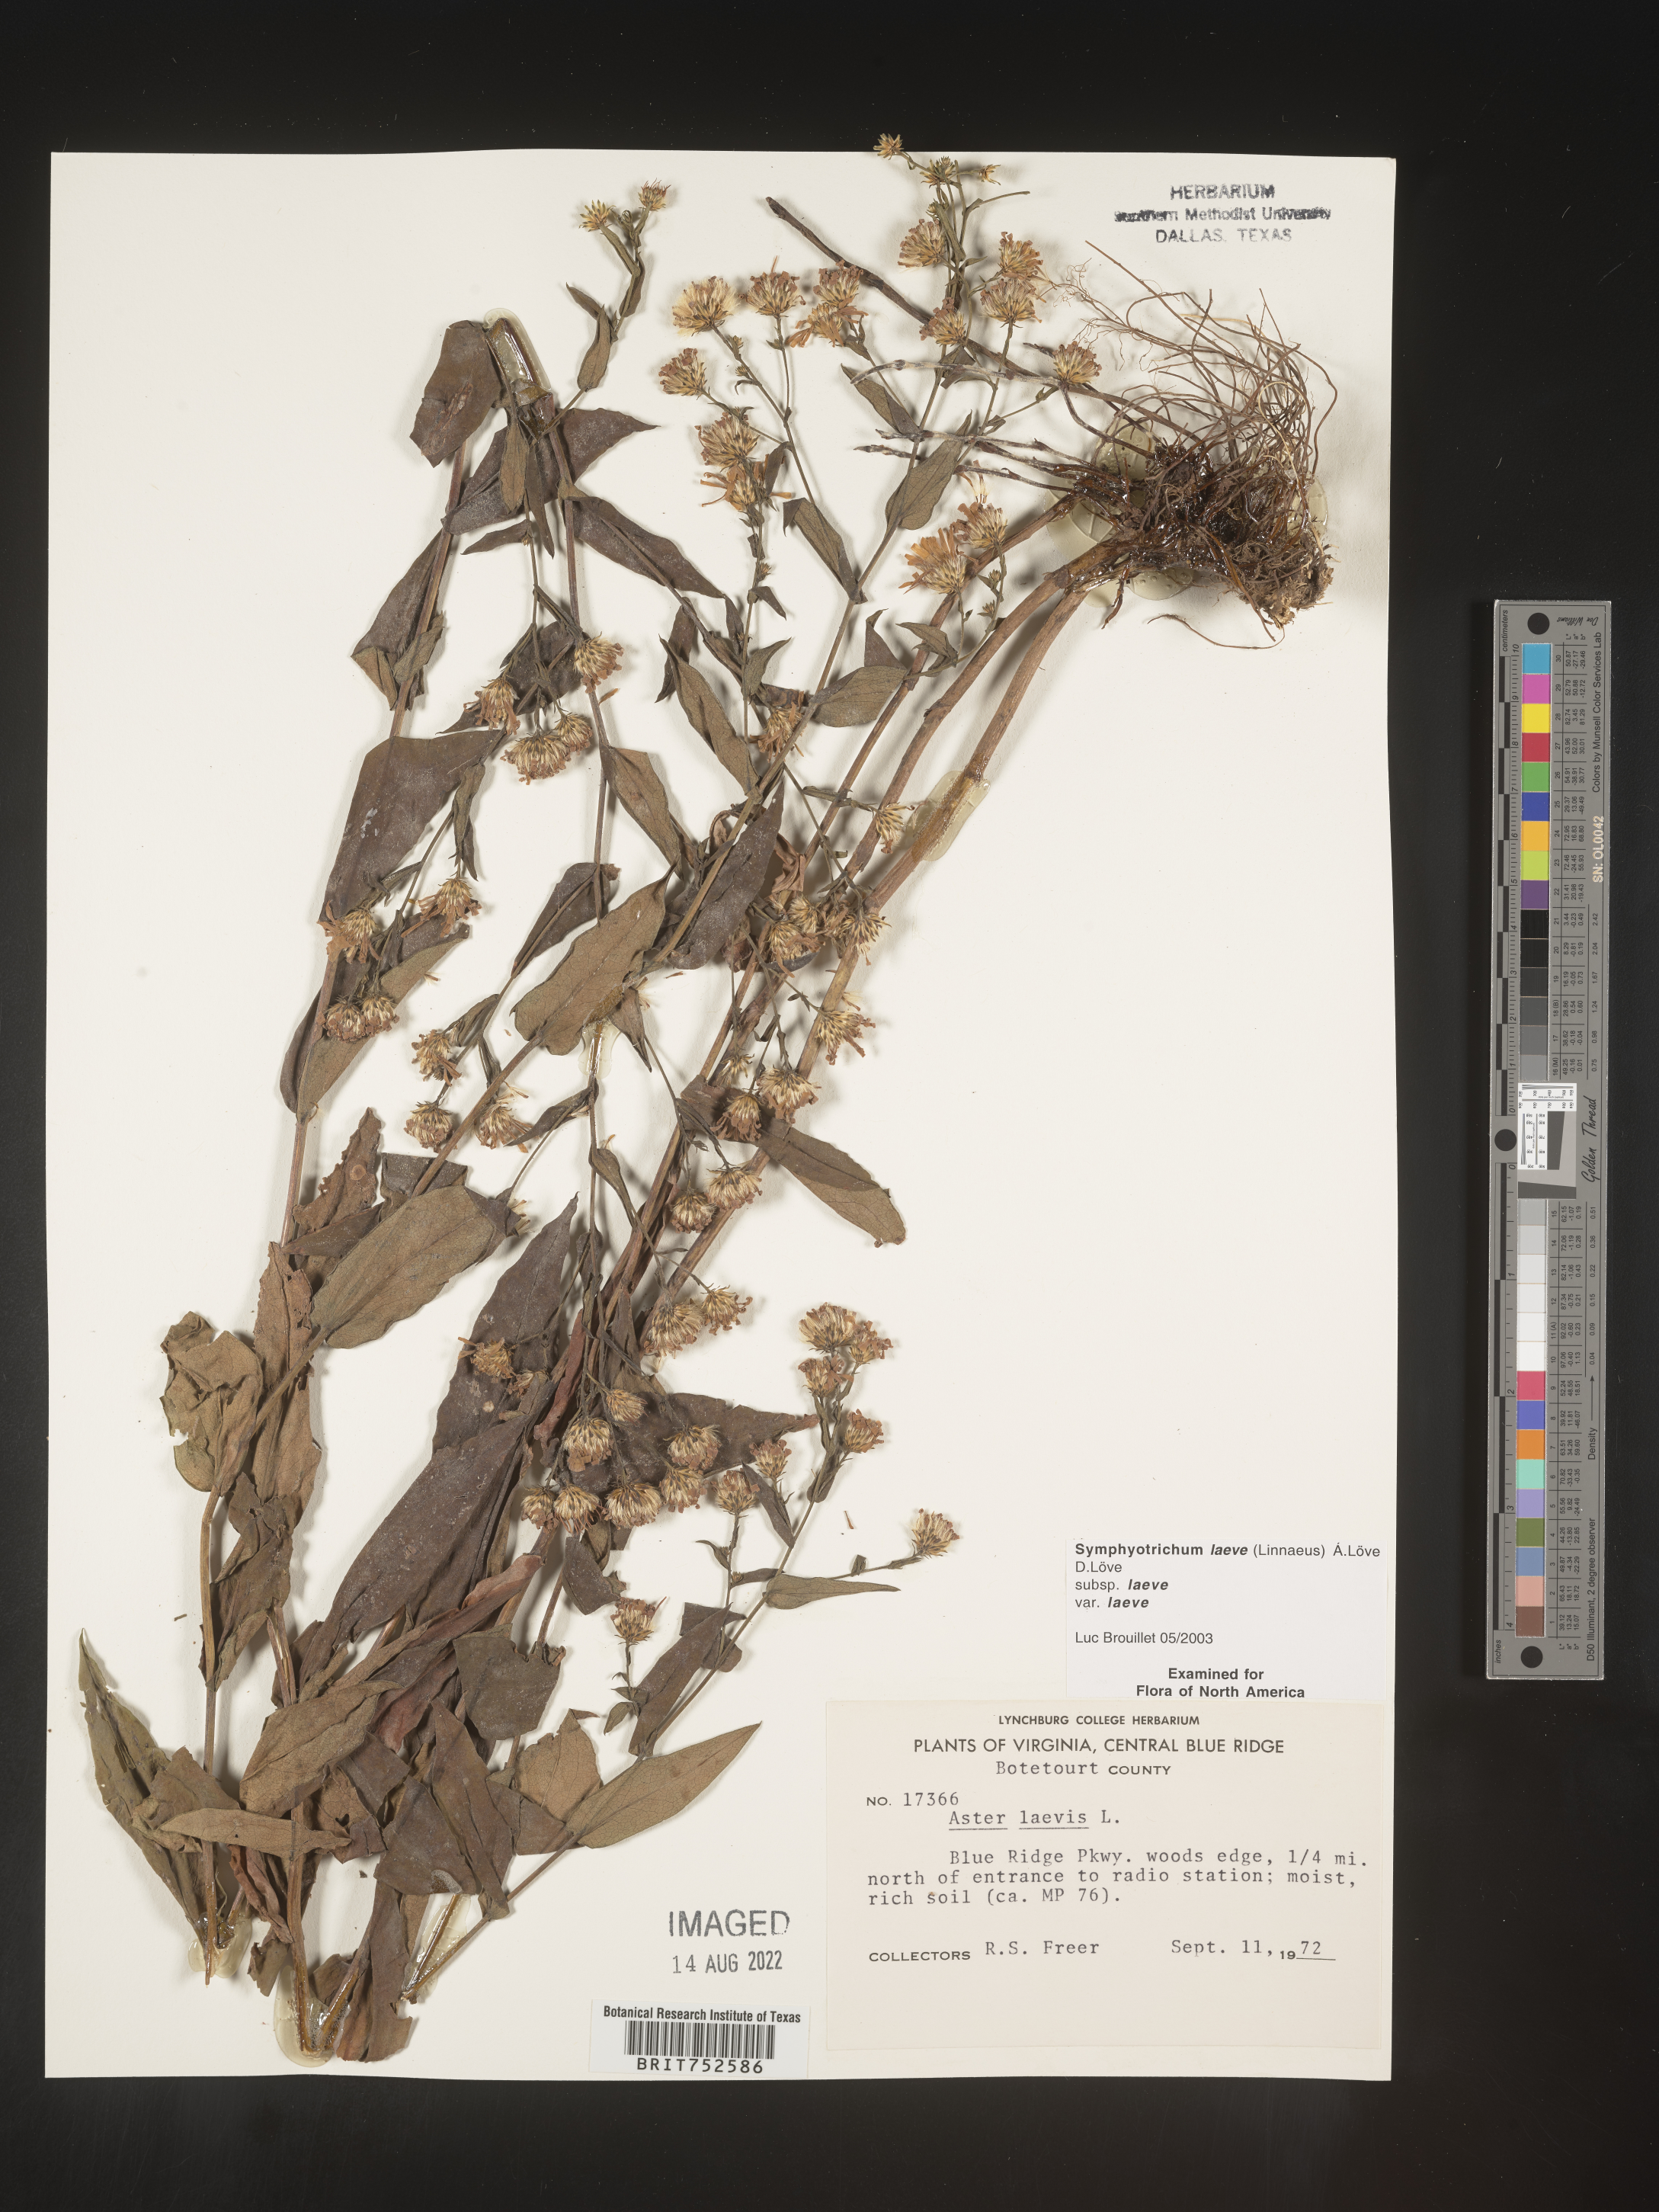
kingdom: Plantae
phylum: Tracheophyta
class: Magnoliopsida
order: Asterales
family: Asteraceae
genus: Symphyotrichum
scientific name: Symphyotrichum laeve
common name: Glaucous aster
